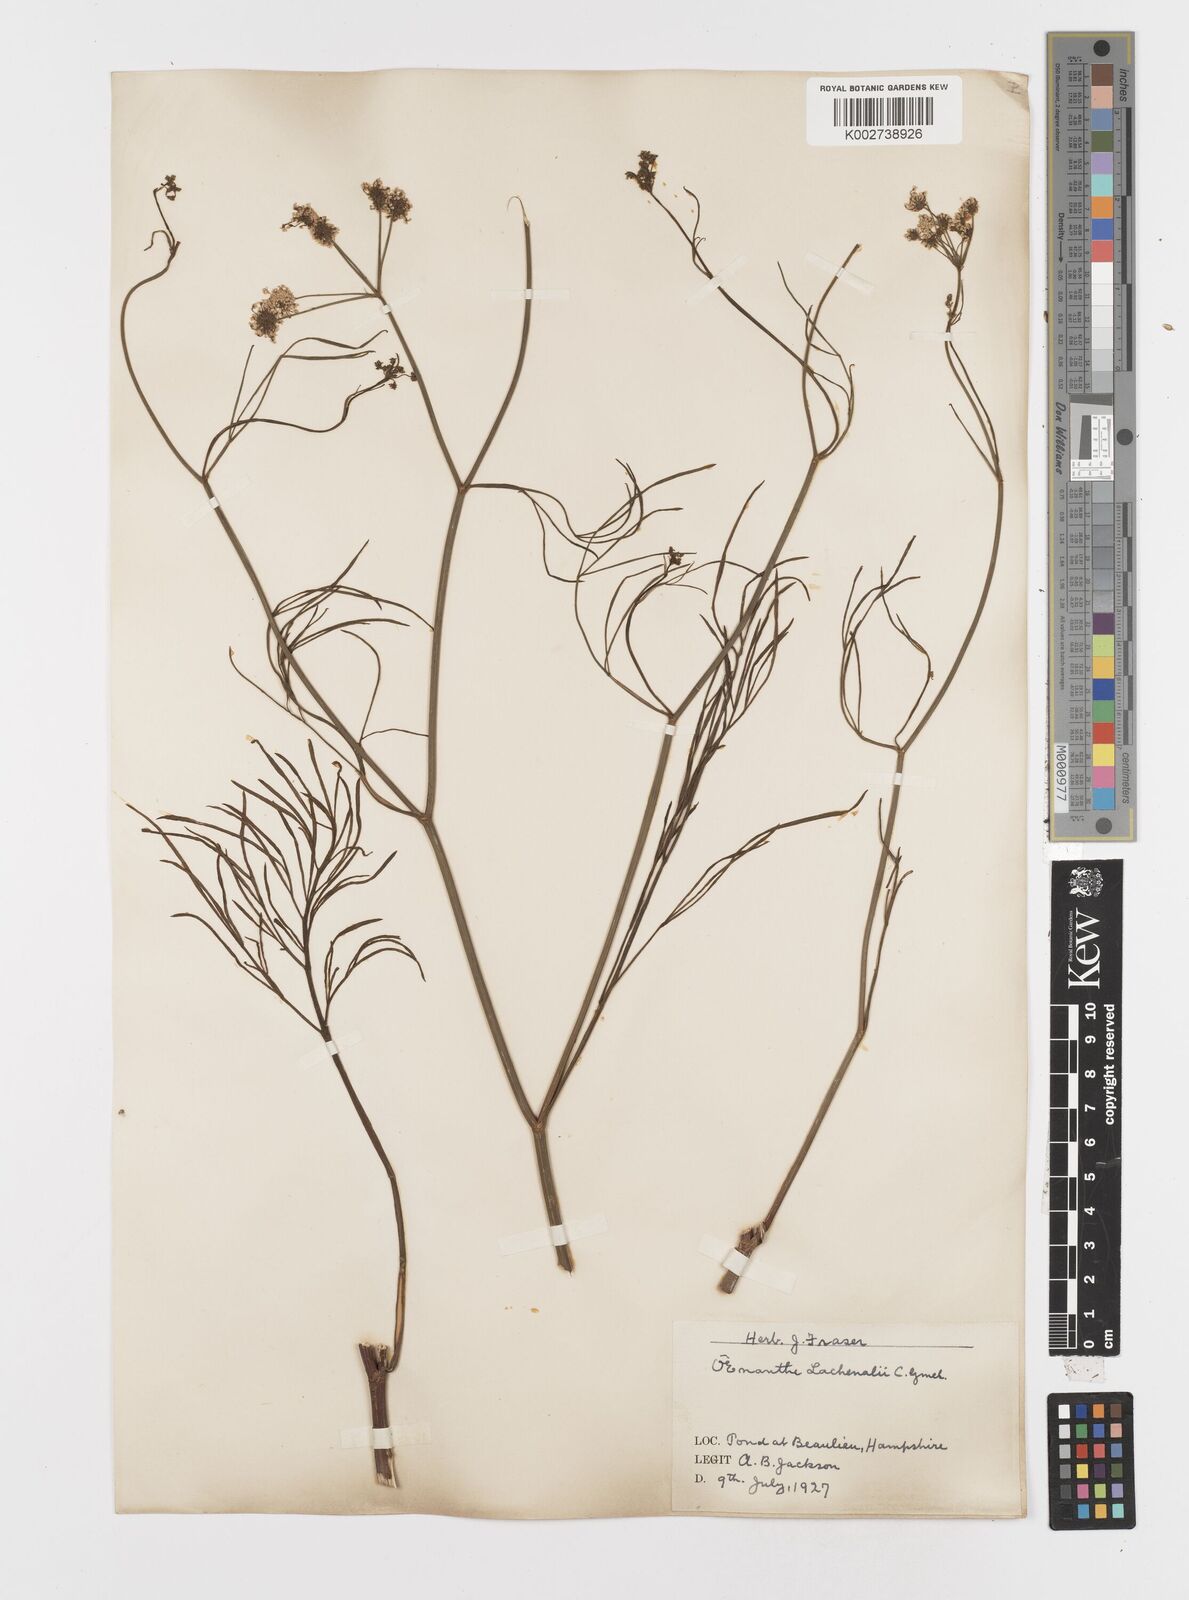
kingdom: Plantae
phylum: Tracheophyta
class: Magnoliopsida
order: Apiales
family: Apiaceae
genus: Oenanthe
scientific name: Oenanthe lachenalii
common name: Parsley water-dropwort
